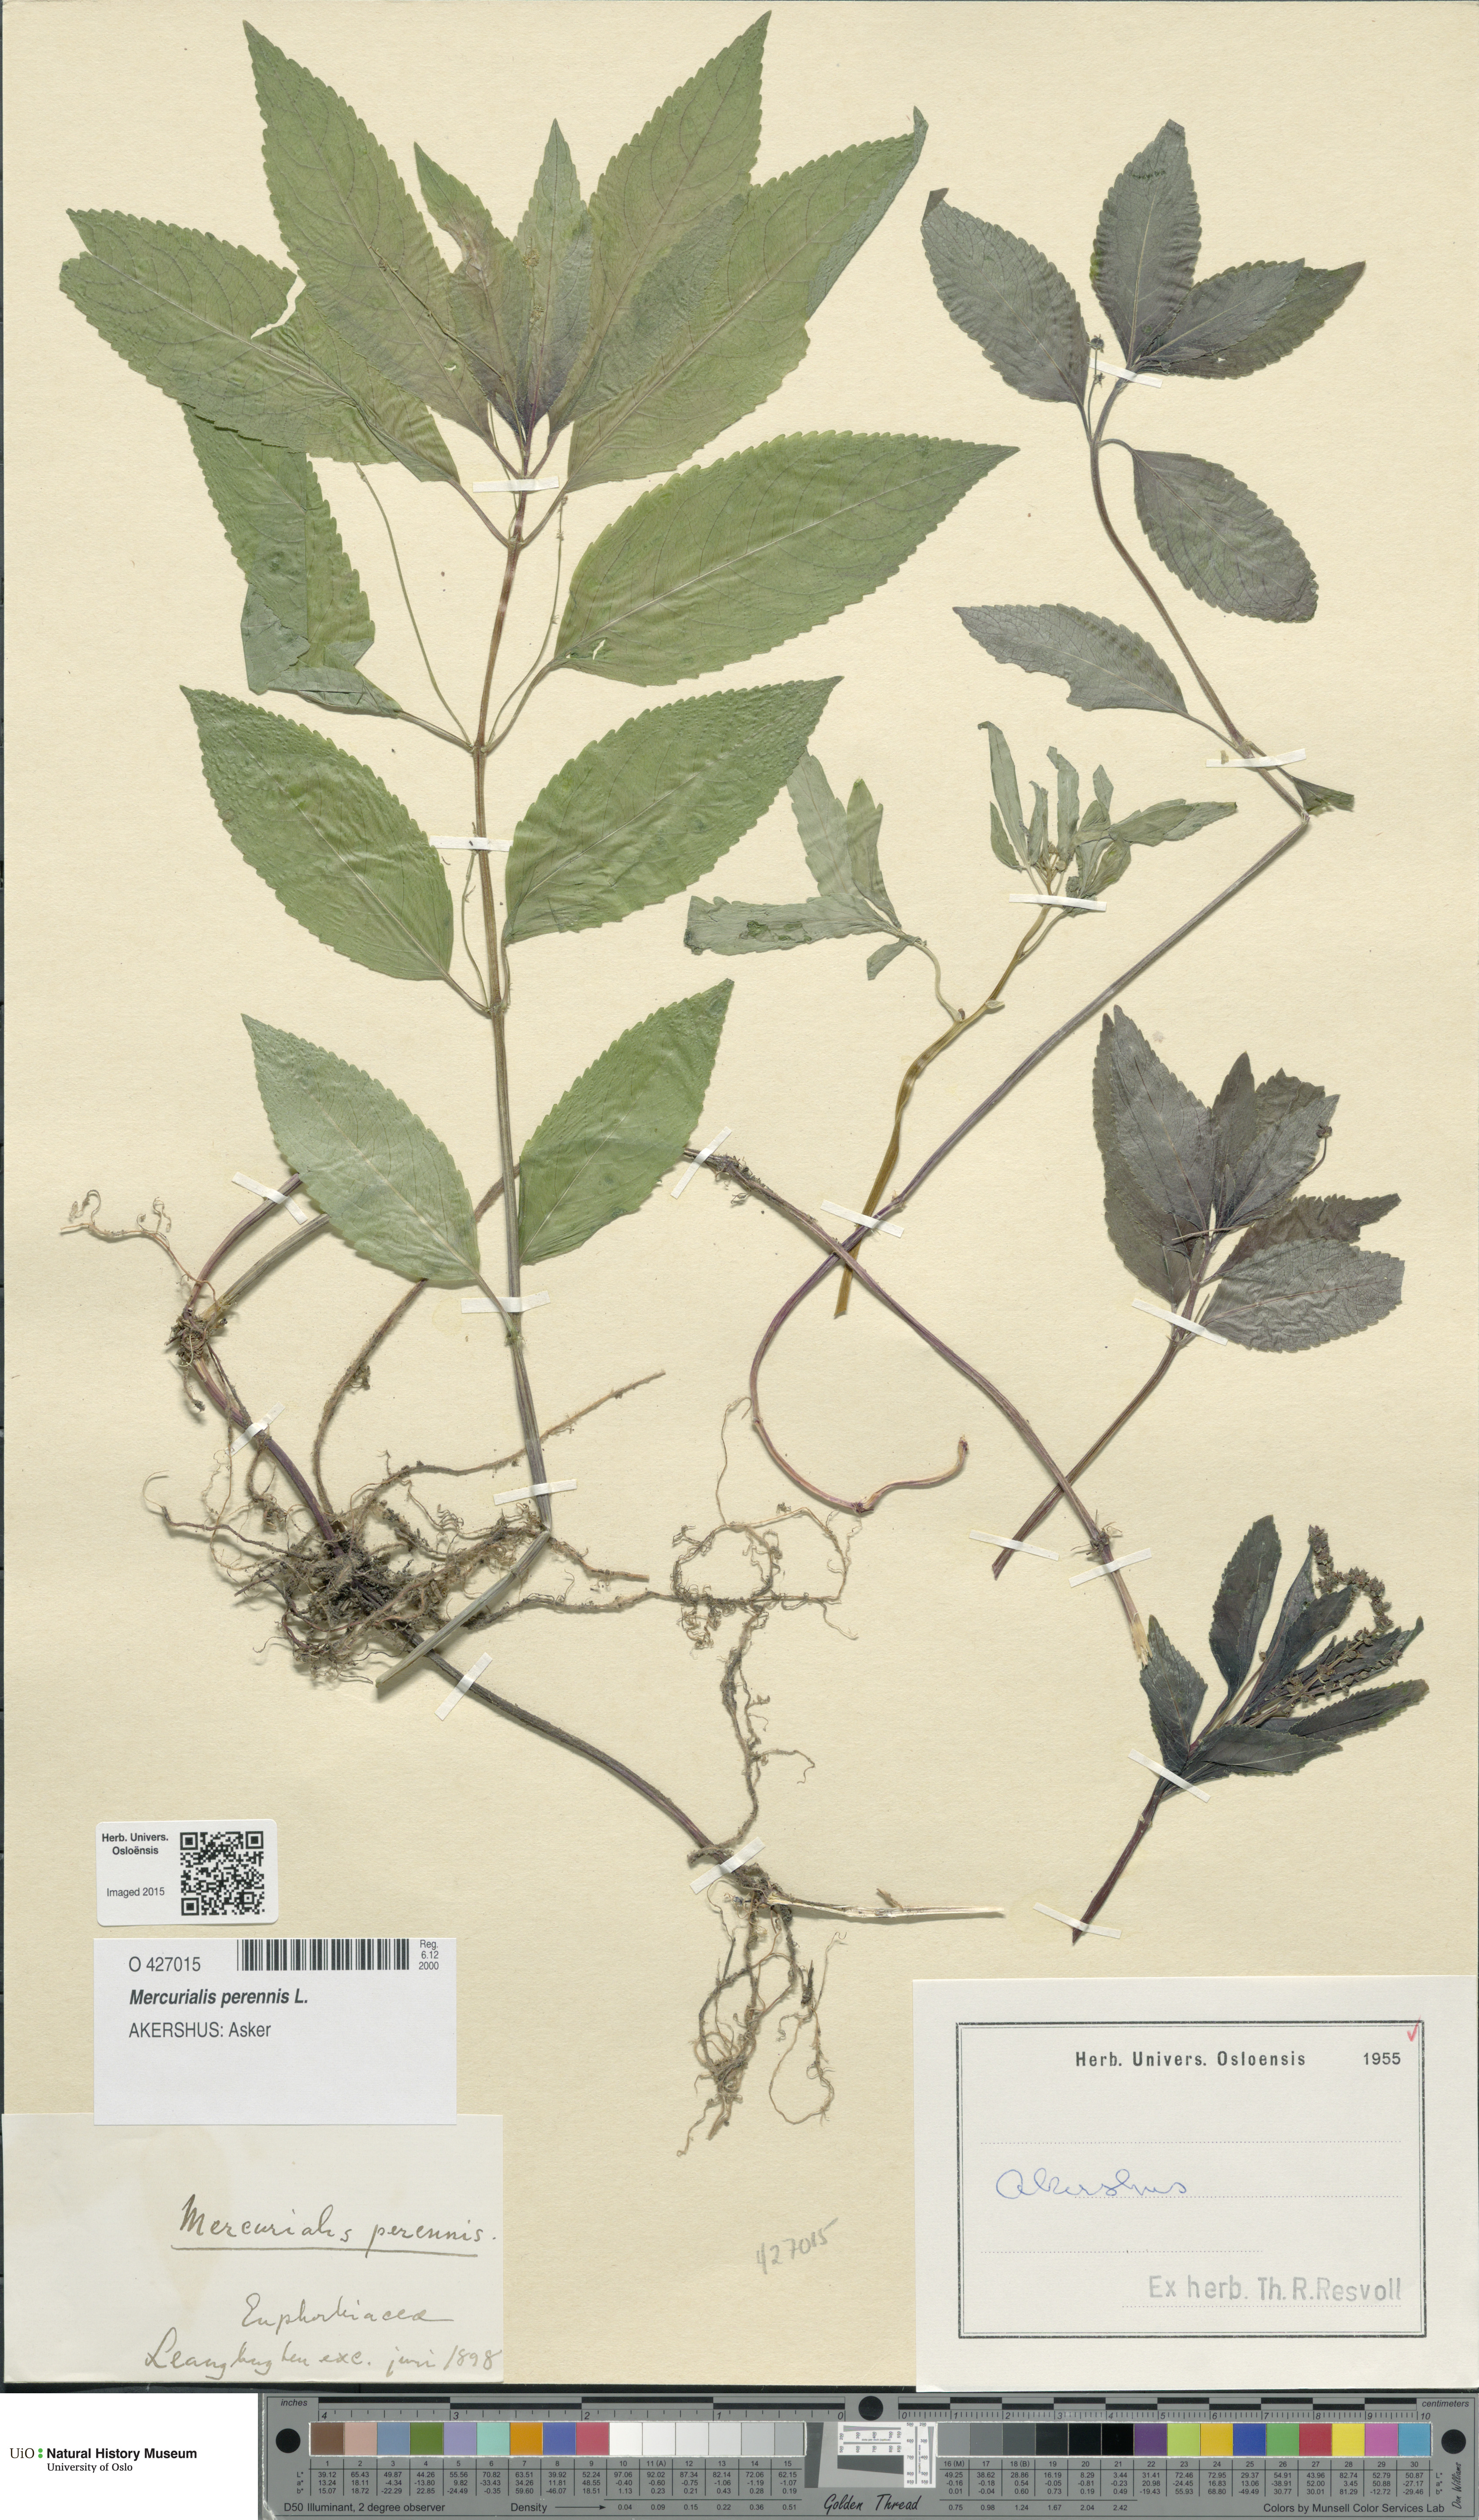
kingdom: Plantae
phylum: Tracheophyta
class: Magnoliopsida
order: Malpighiales
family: Euphorbiaceae
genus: Mercurialis
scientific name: Mercurialis perennis
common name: Dog mercury
